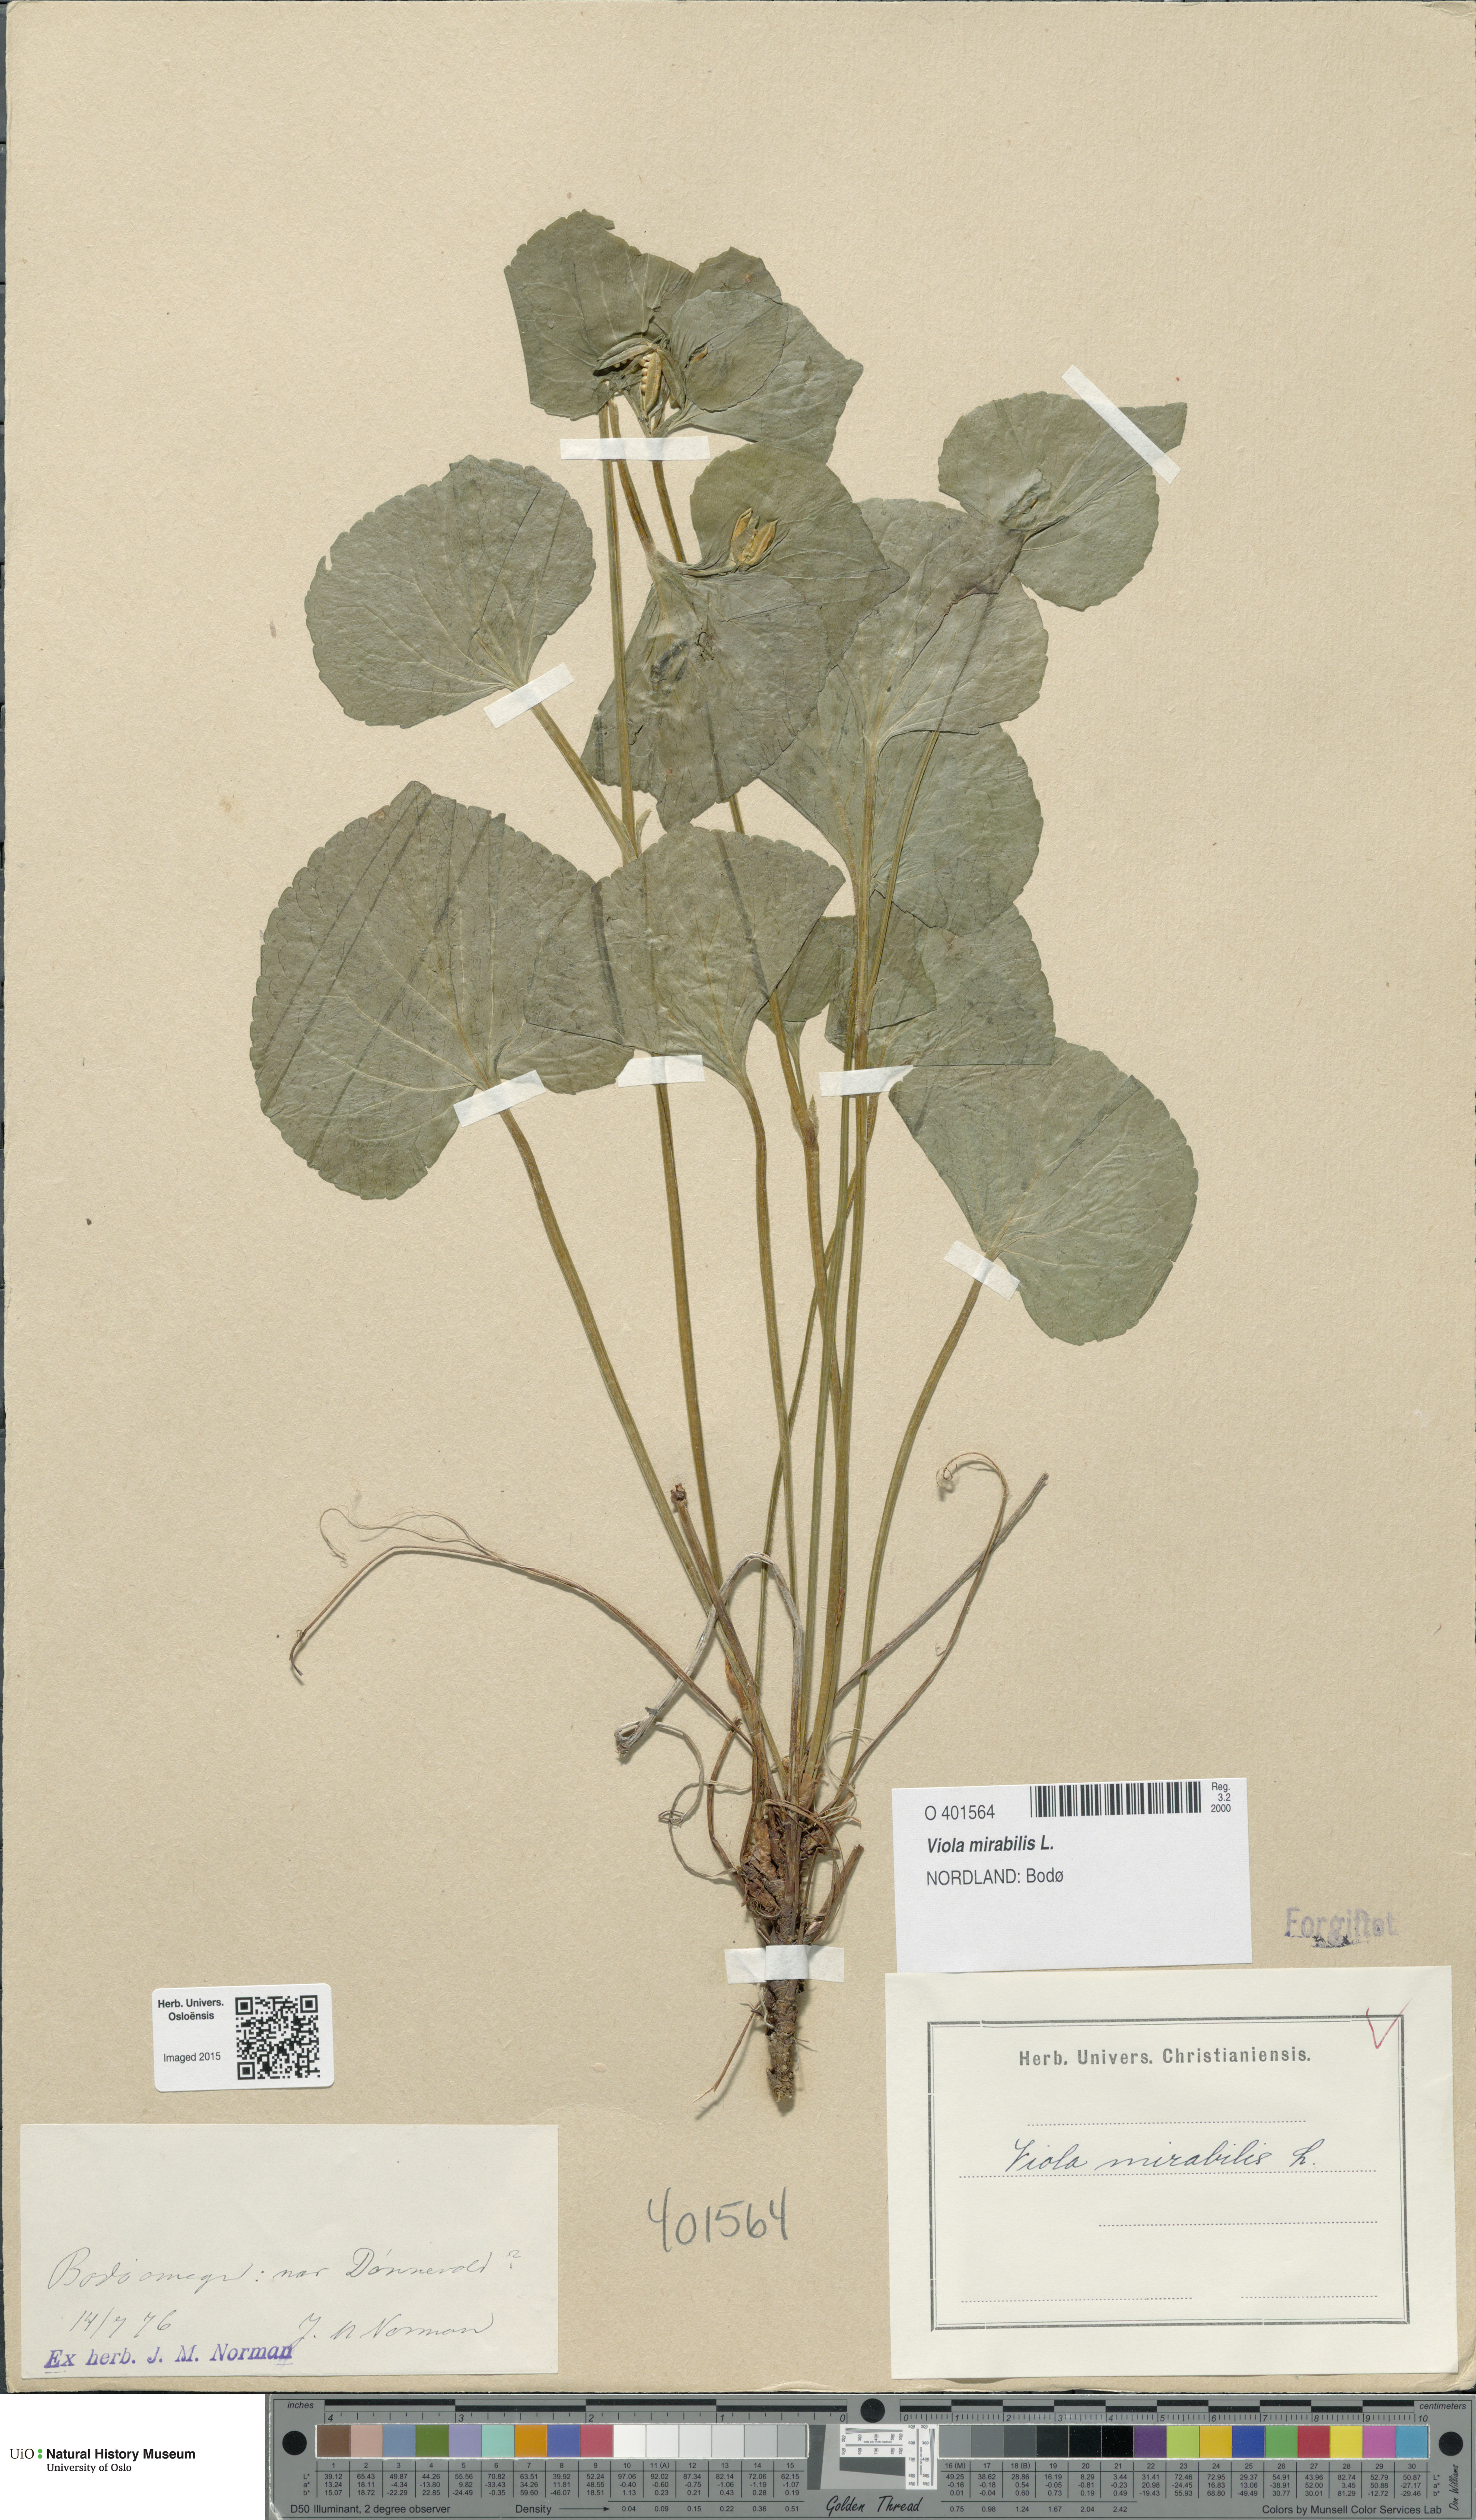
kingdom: Plantae
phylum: Tracheophyta
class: Magnoliopsida
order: Malpighiales
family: Violaceae
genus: Viola
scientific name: Viola mirabilis
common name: Wonder violet
